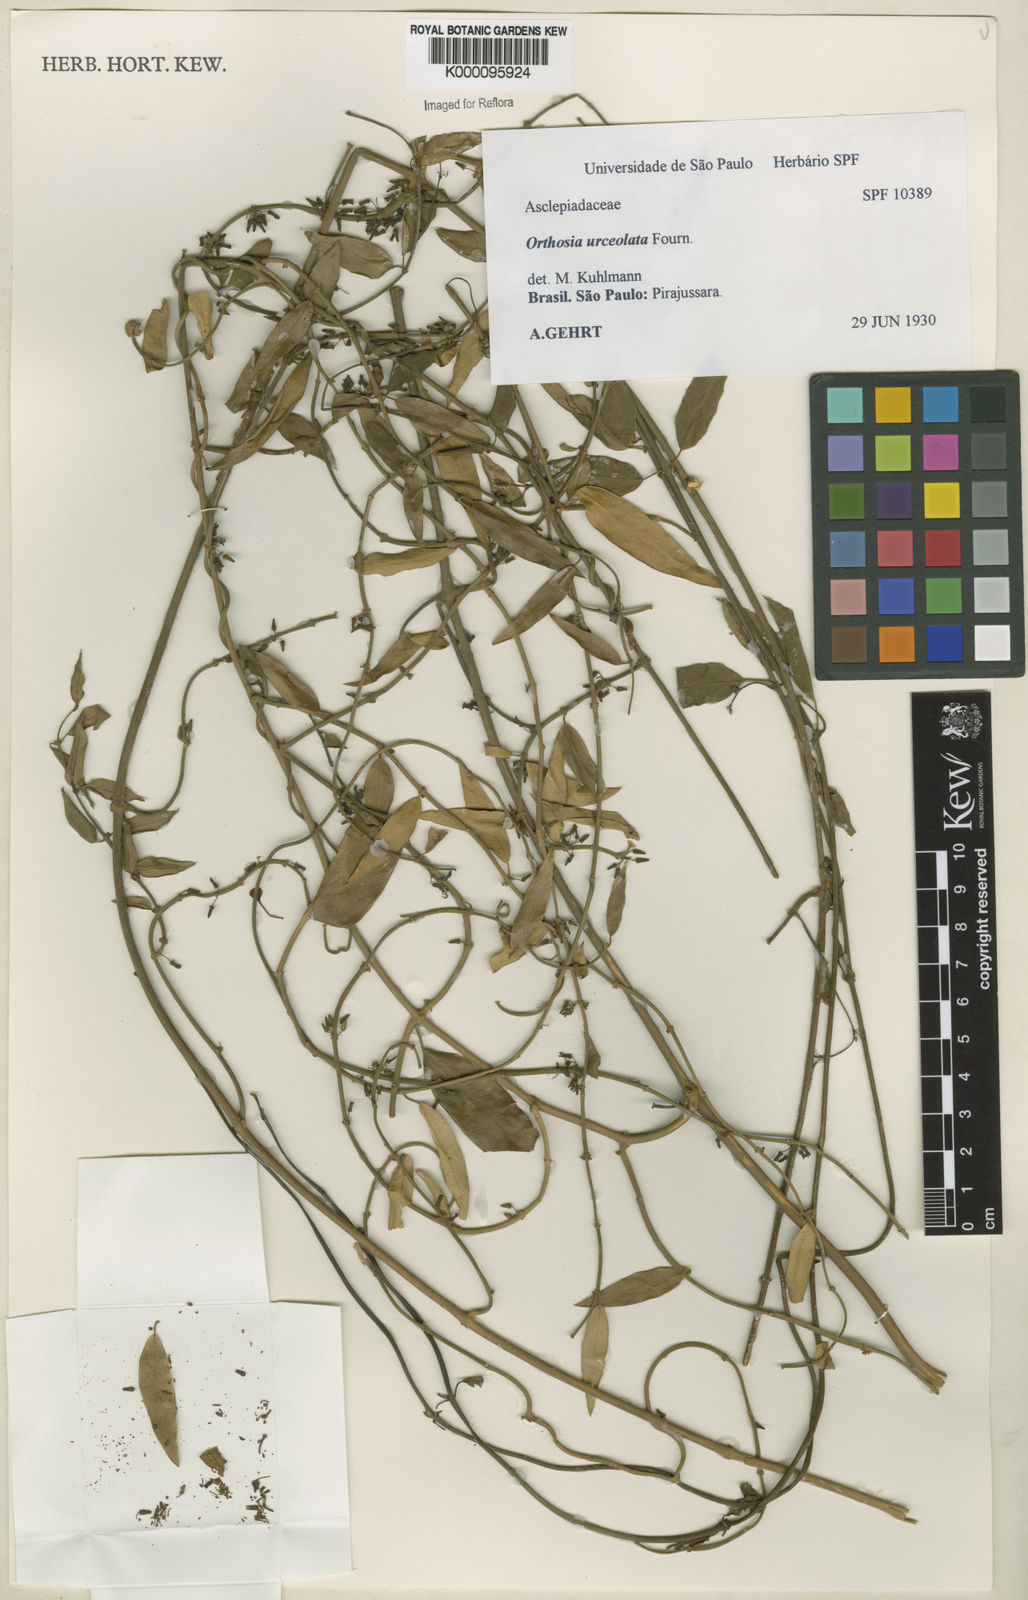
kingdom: Plantae
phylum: Tracheophyta
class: Magnoliopsida
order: Gentianales
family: Apocynaceae
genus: Orthosia
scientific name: Orthosia urceolata
